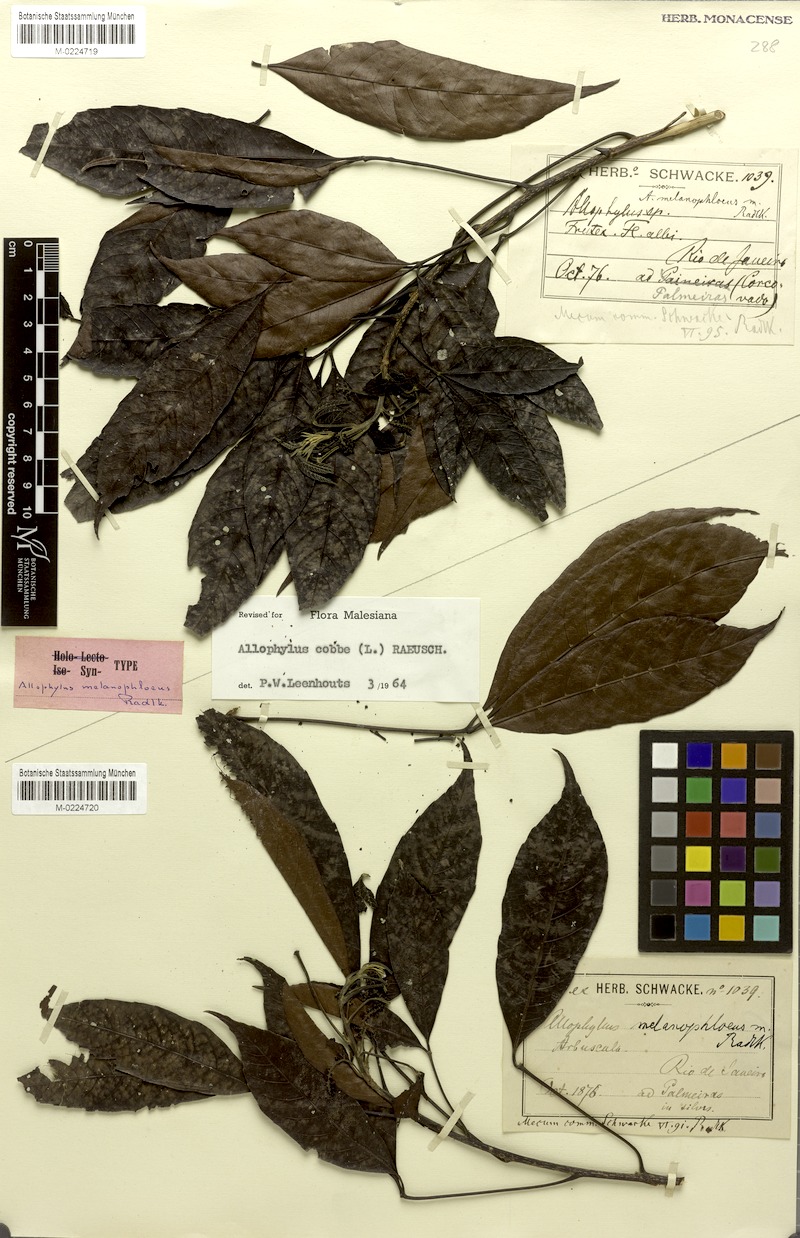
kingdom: Plantae
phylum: Tracheophyta
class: Magnoliopsida
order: Sapindales
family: Sapindaceae
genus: Allophylus
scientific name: Allophylus melanophloeus
